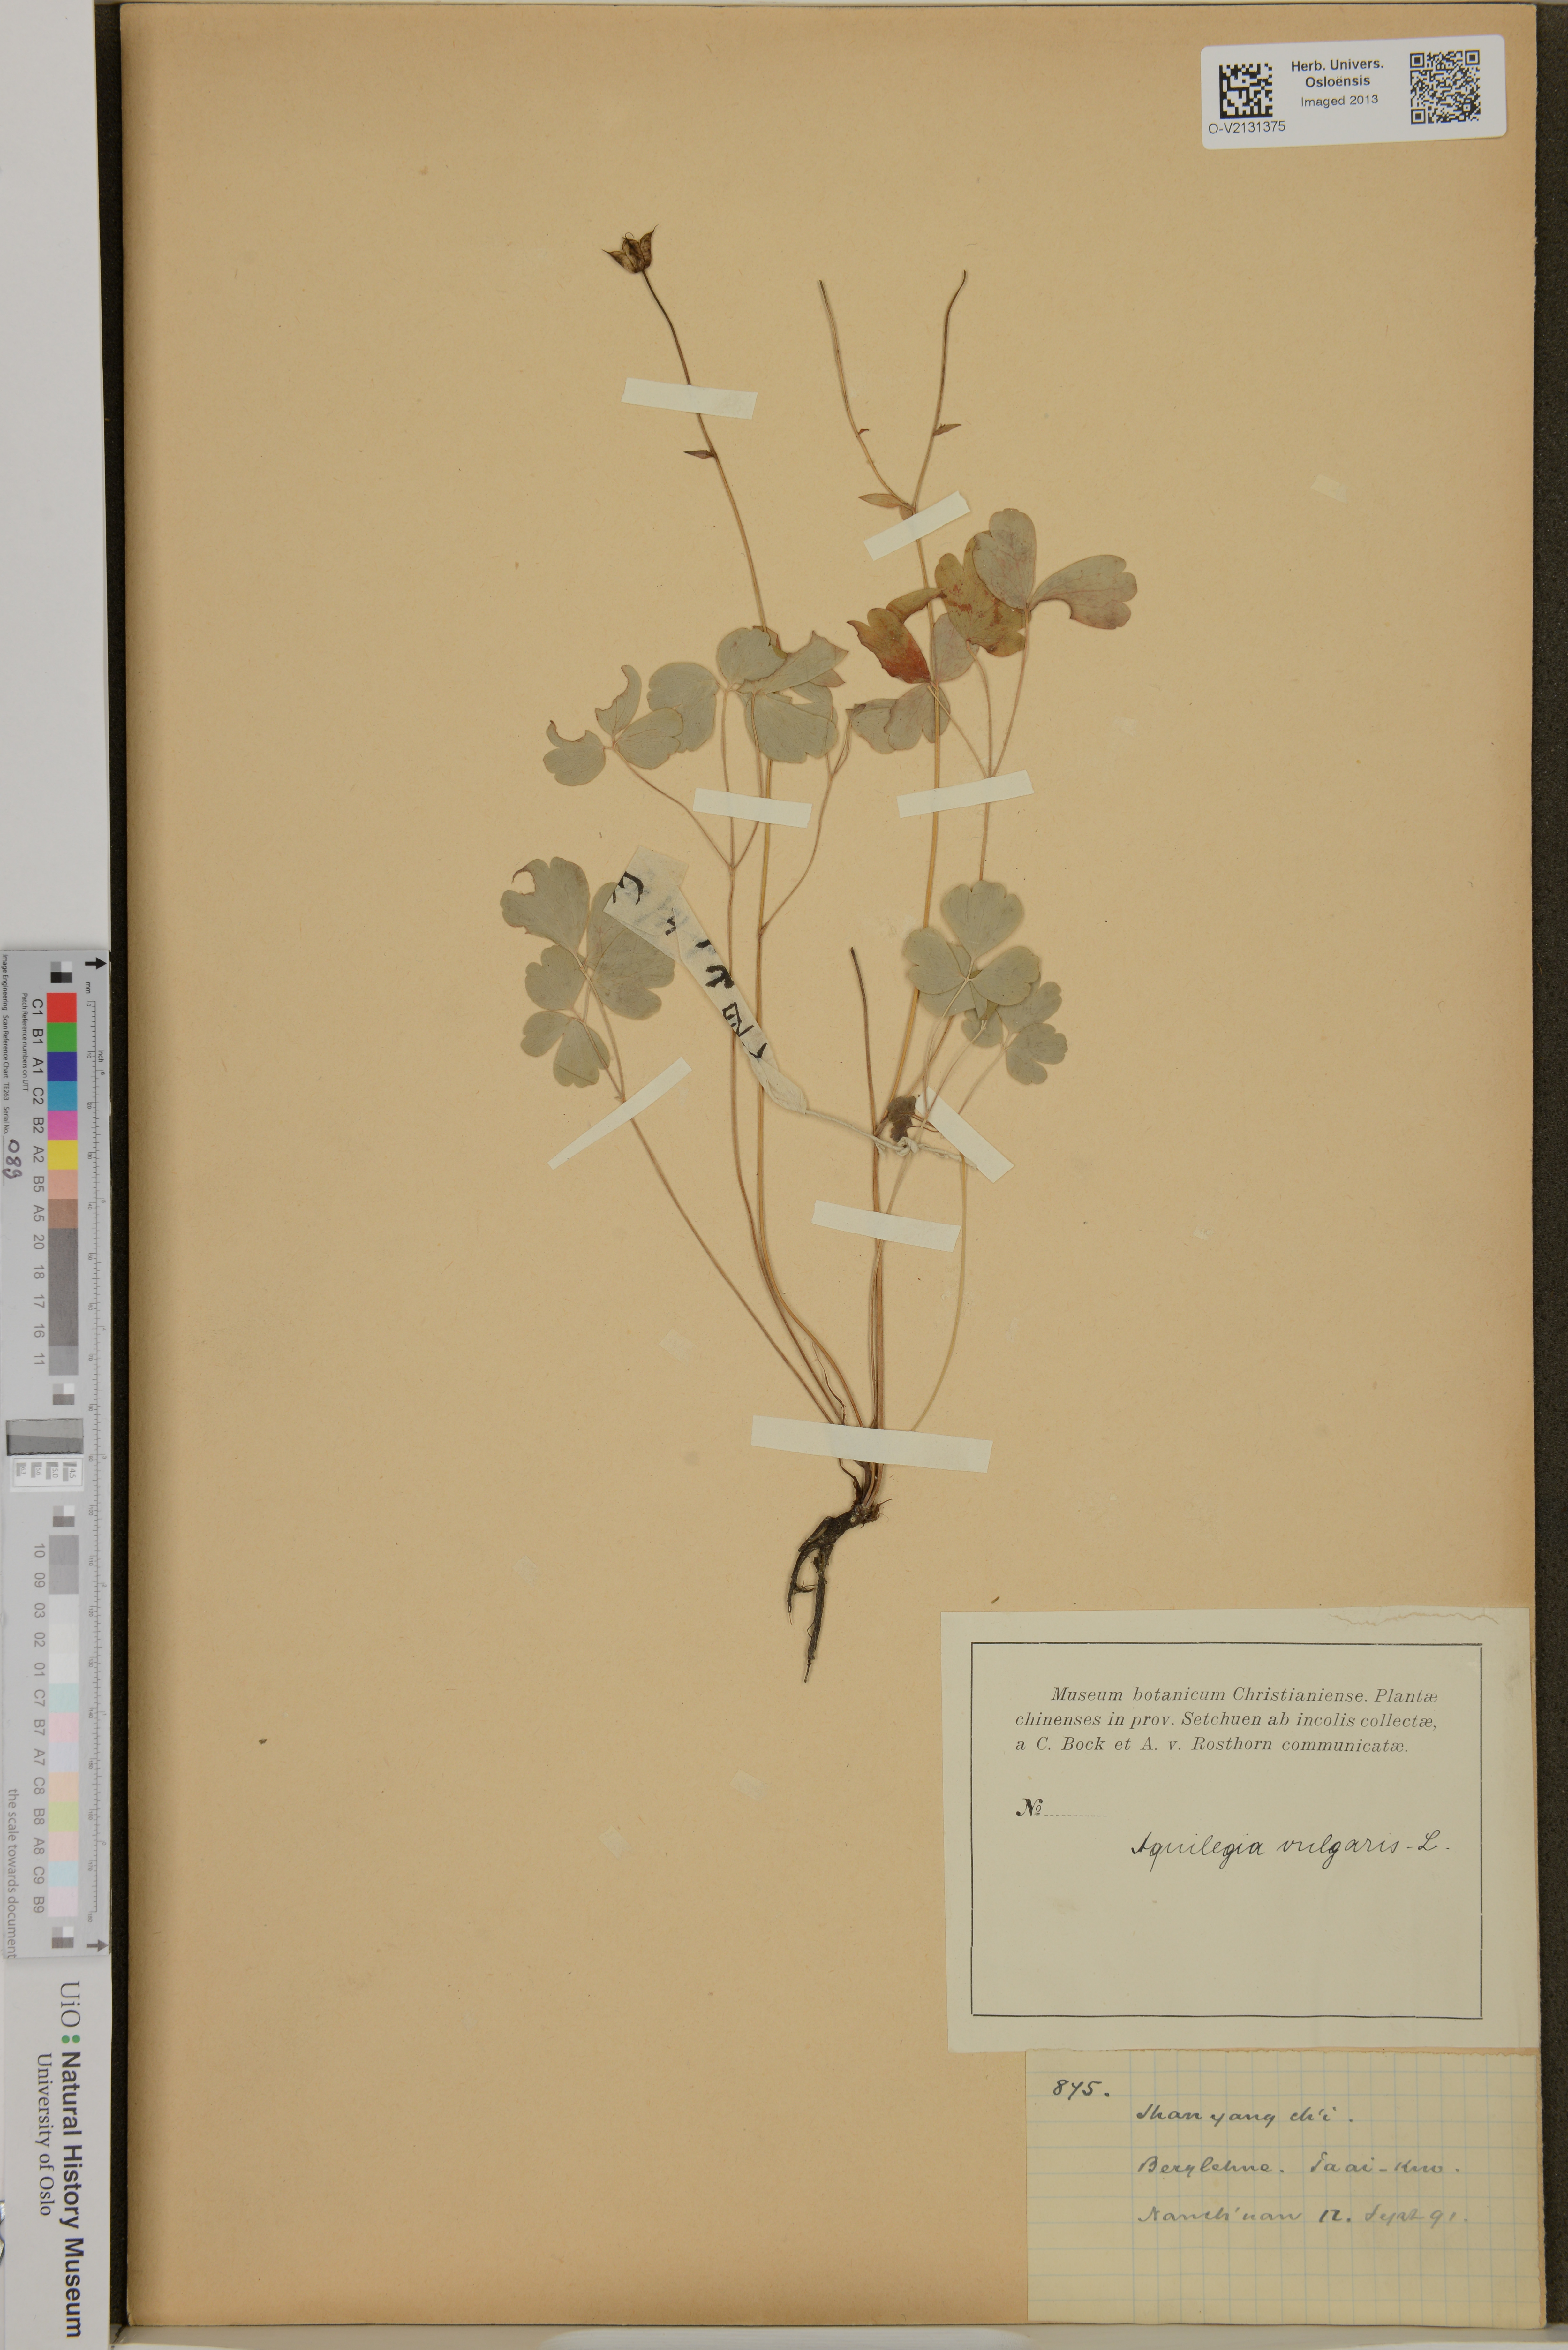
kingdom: Plantae
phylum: Tracheophyta
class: Magnoliopsida
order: Ranunculales
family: Ranunculaceae
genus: Aquilegia
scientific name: Aquilegia vulgaris
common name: Columbine
